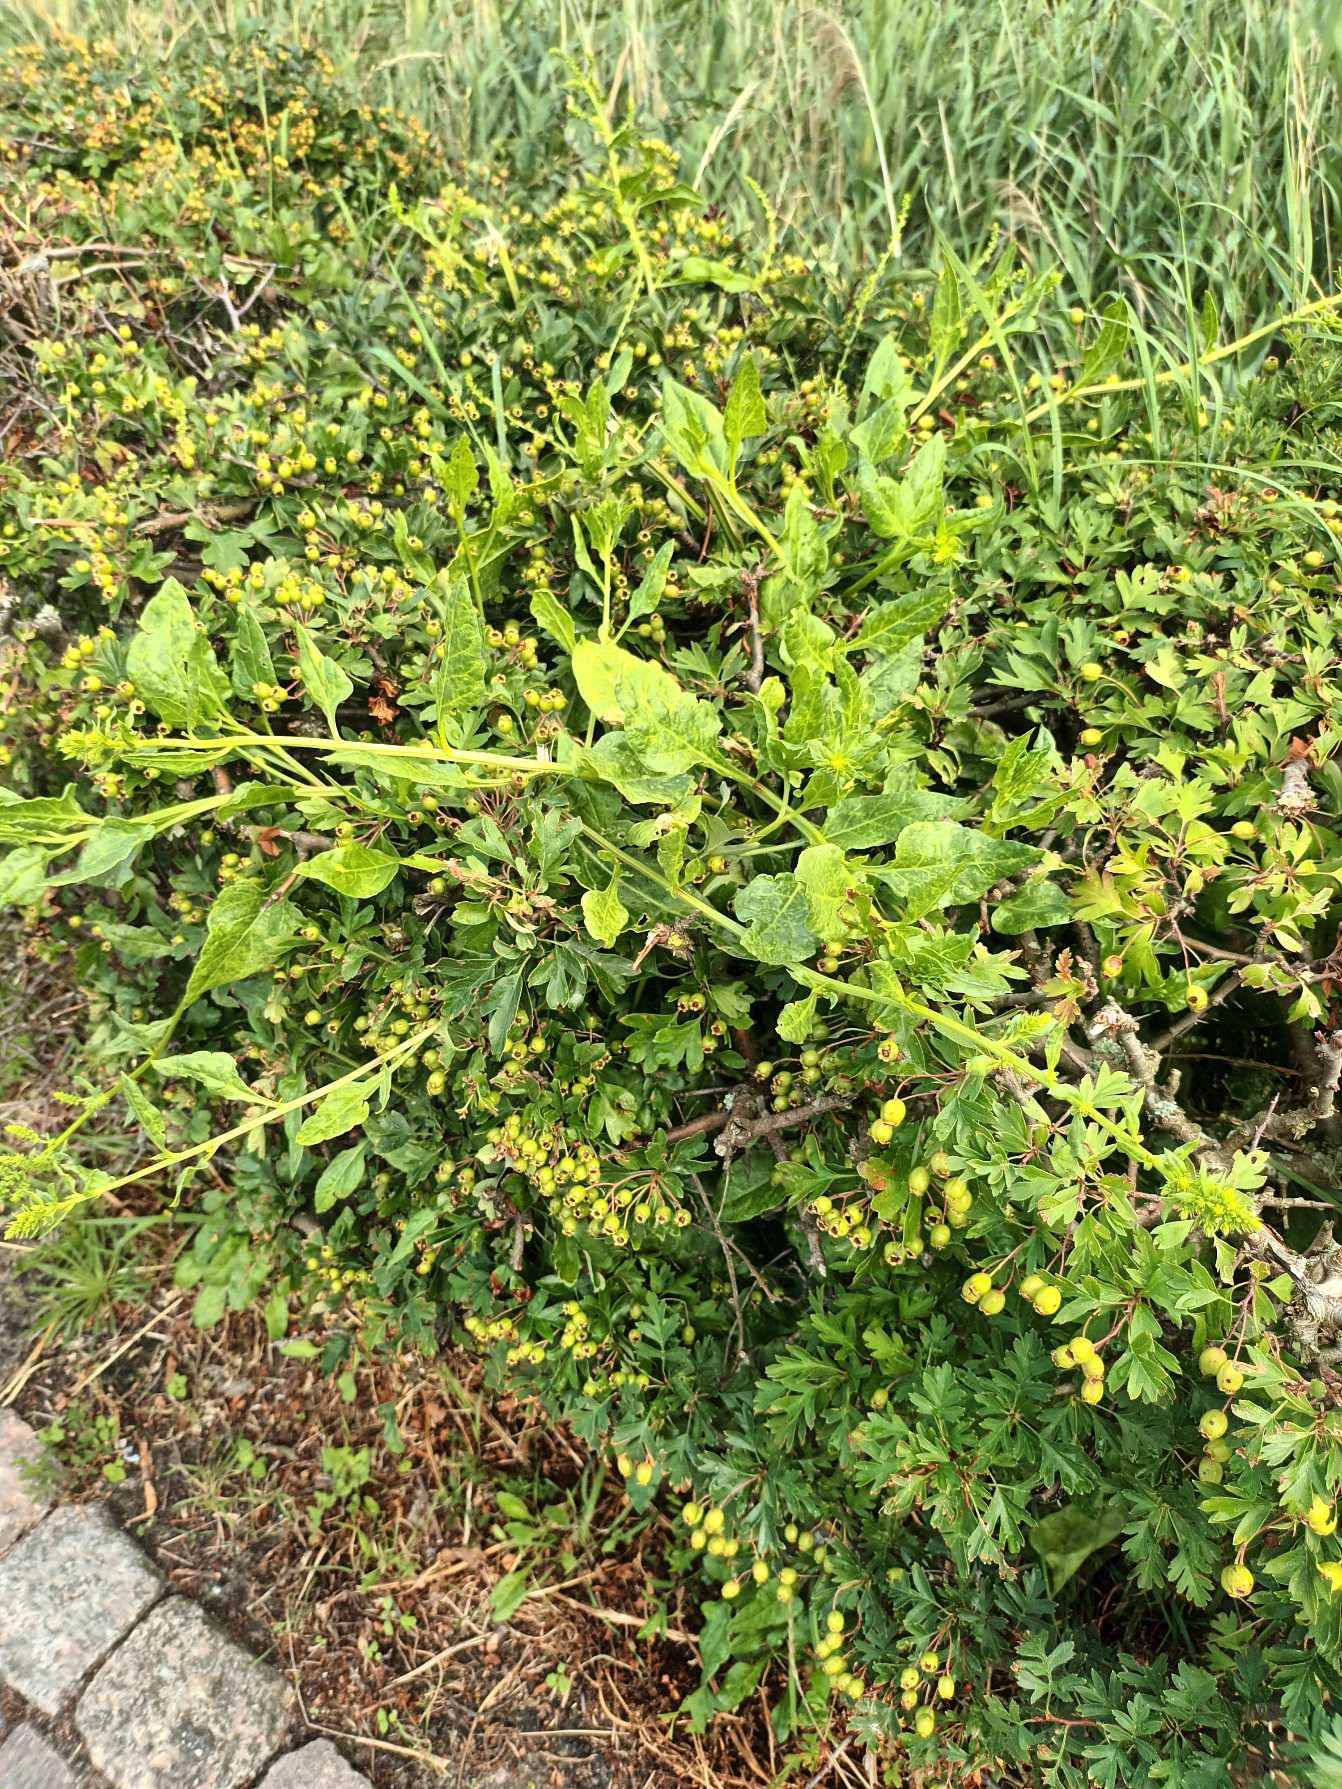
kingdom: Plantae
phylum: Tracheophyta
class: Magnoliopsida
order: Caryophyllales
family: Amaranthaceae
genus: Beta
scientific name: Beta maritima
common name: Strand-bede
